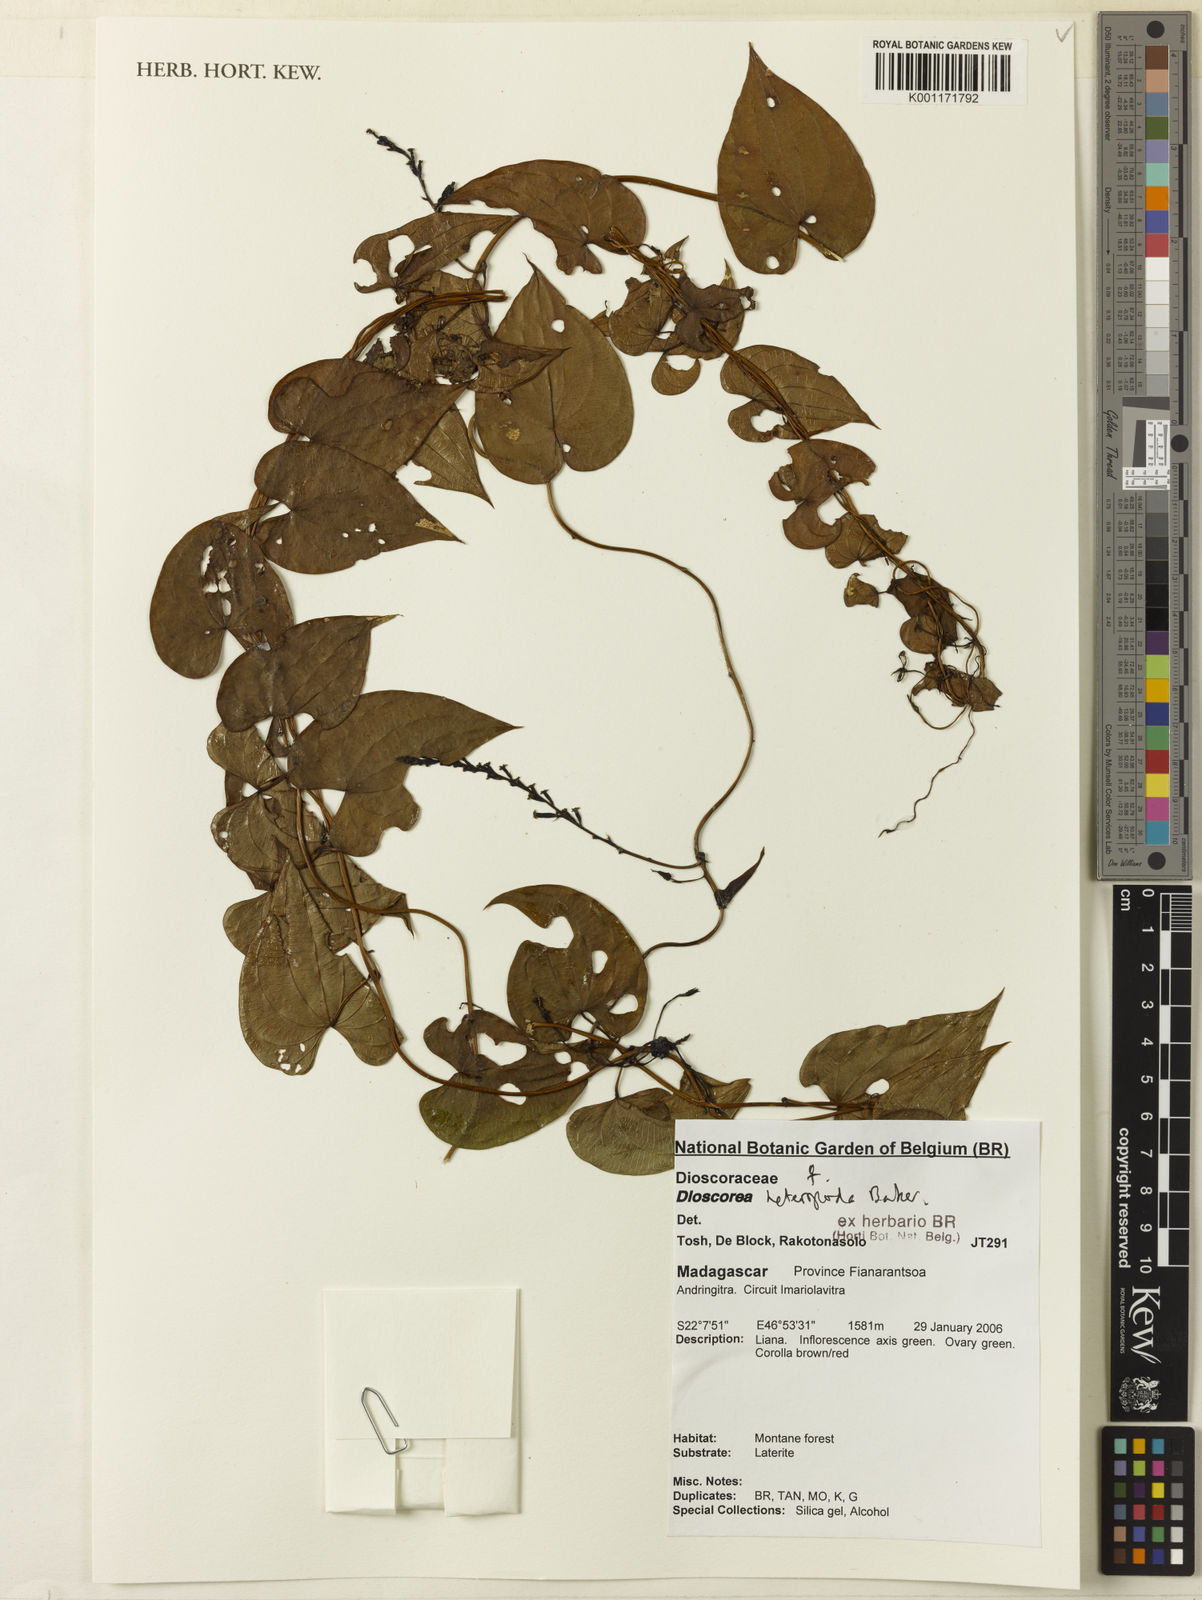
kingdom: Plantae
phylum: Tracheophyta
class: Liliopsida
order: Dioscoreales
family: Dioscoreaceae
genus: Dioscorea
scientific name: Dioscorea heteropoda
